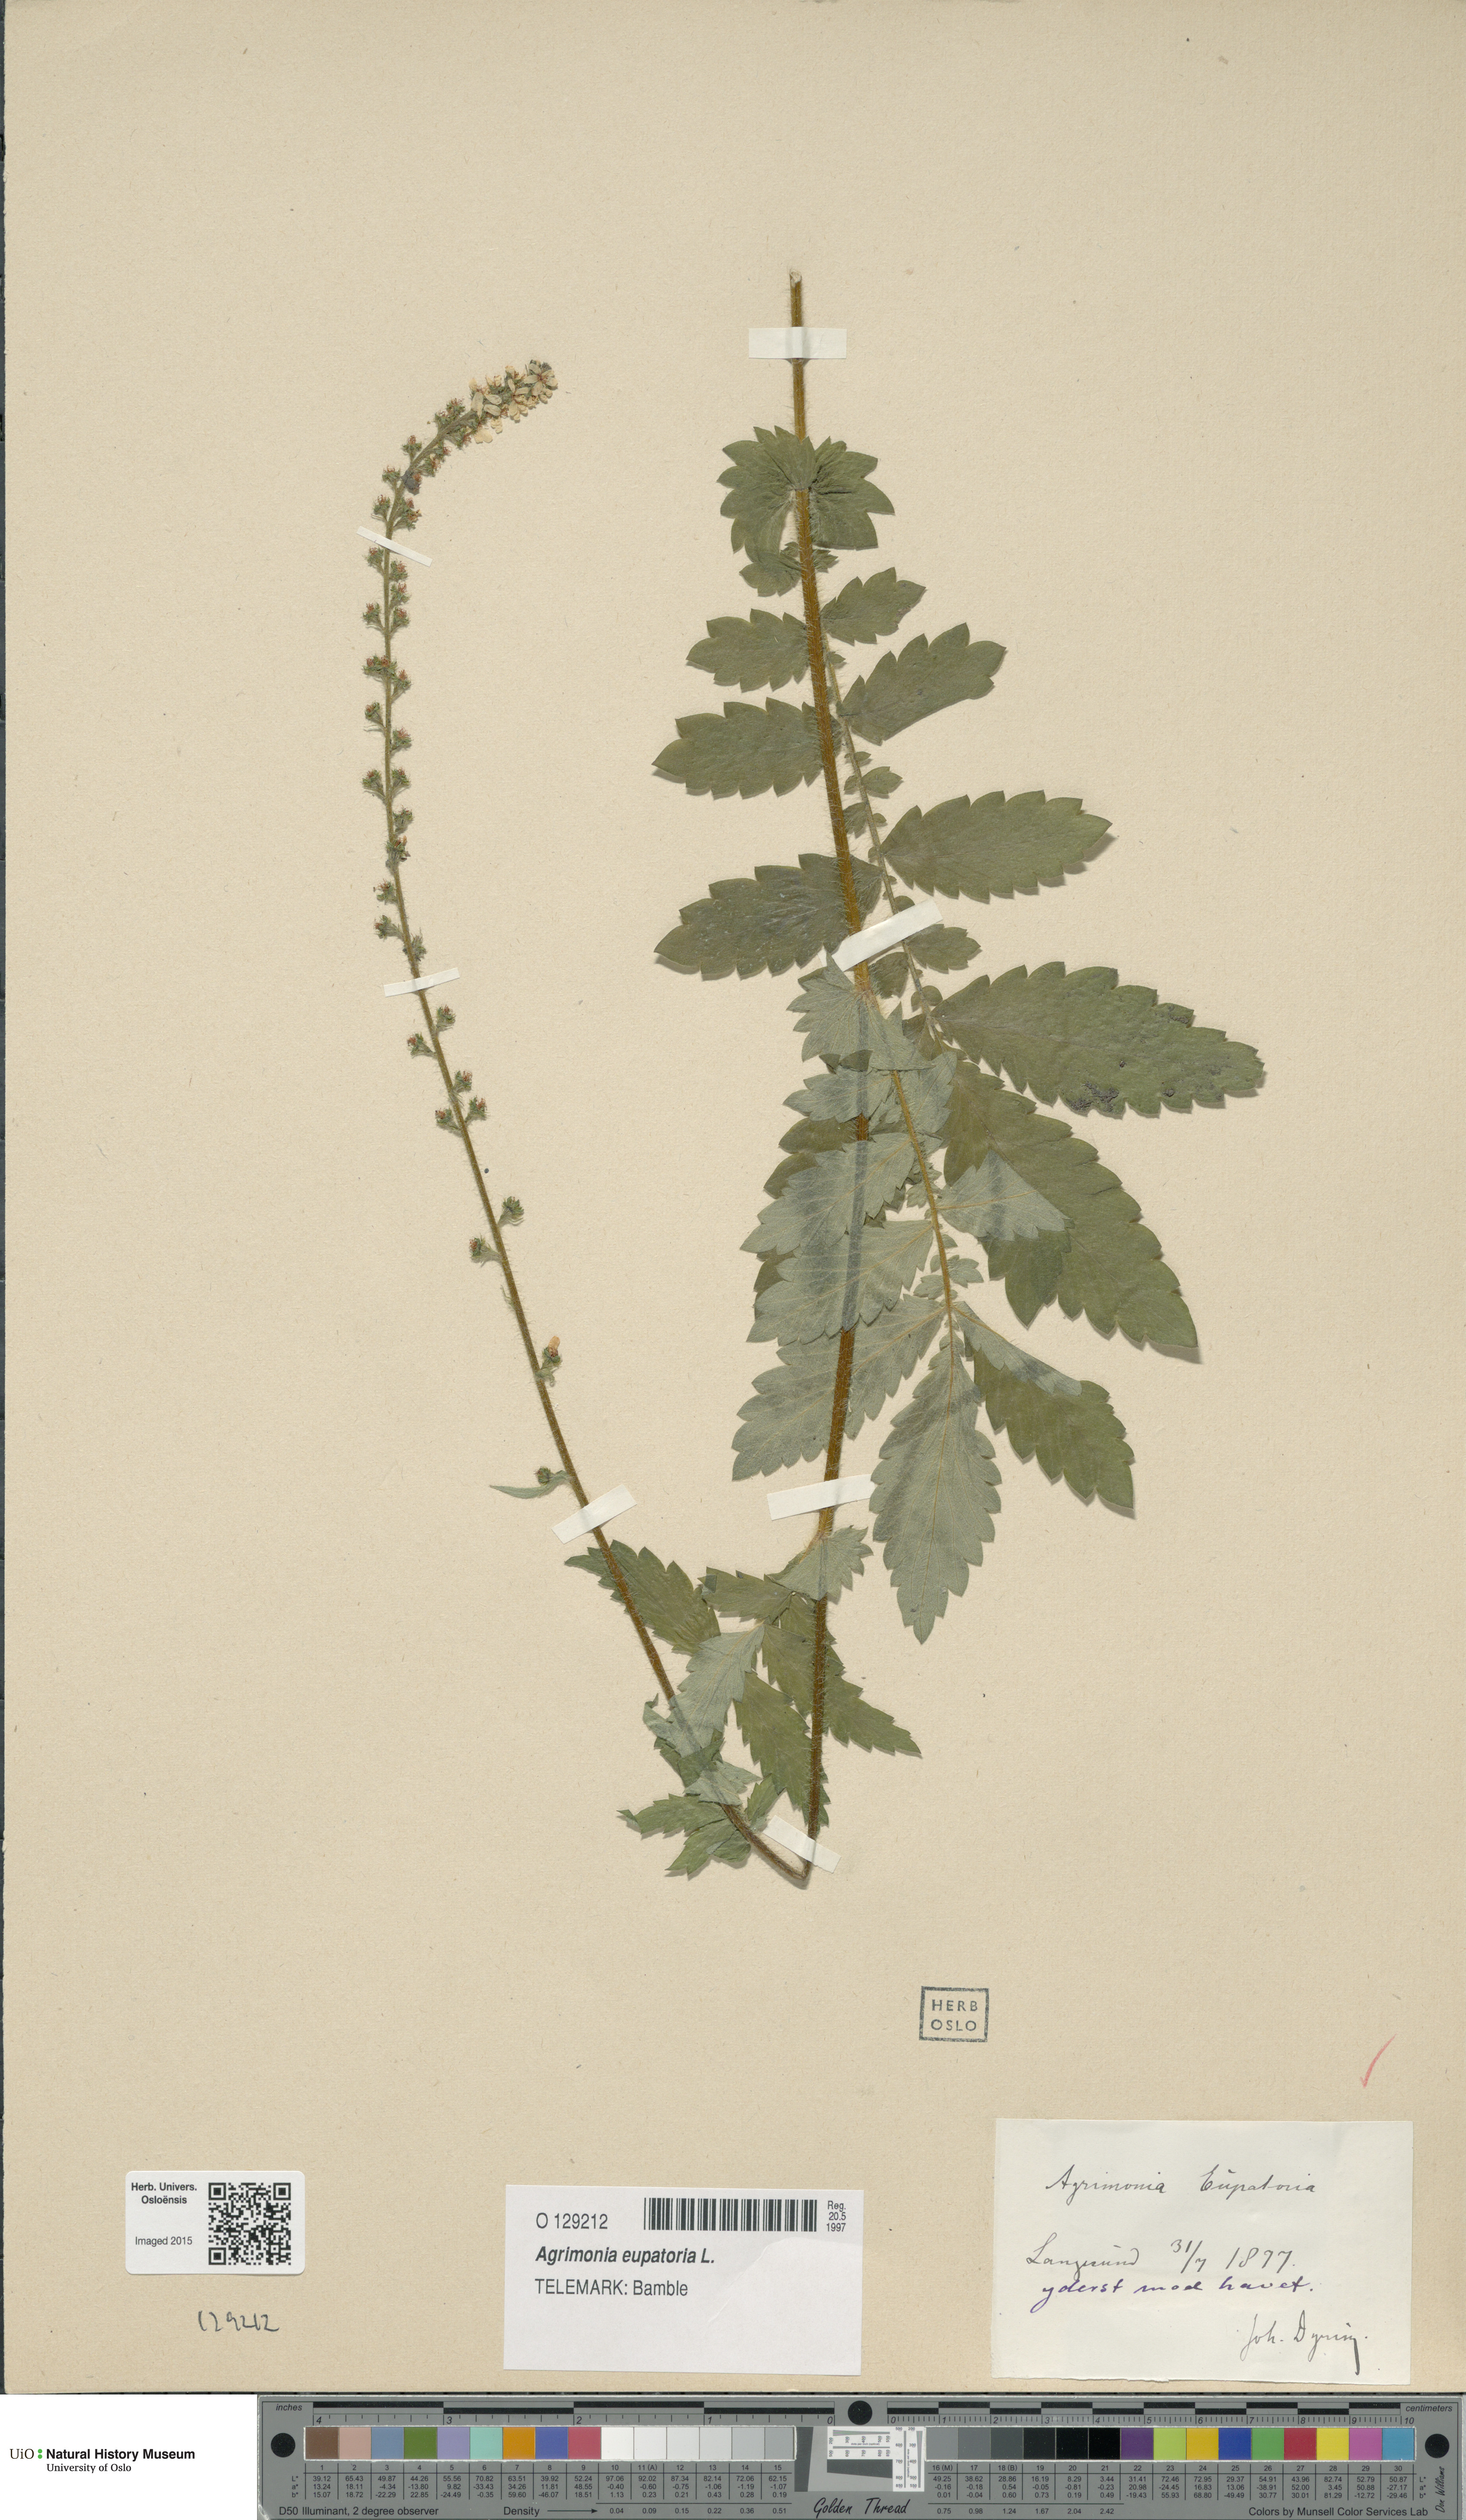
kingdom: Plantae
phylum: Tracheophyta
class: Magnoliopsida
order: Rosales
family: Rosaceae
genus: Agrimonia
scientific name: Agrimonia eupatoria
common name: Agrimony
